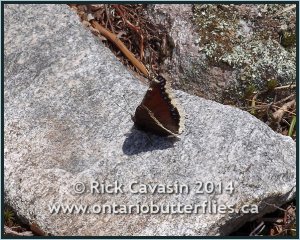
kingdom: Animalia
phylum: Arthropoda
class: Insecta
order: Lepidoptera
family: Nymphalidae
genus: Nymphalis
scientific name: Nymphalis antiopa
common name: Mourning Cloak
